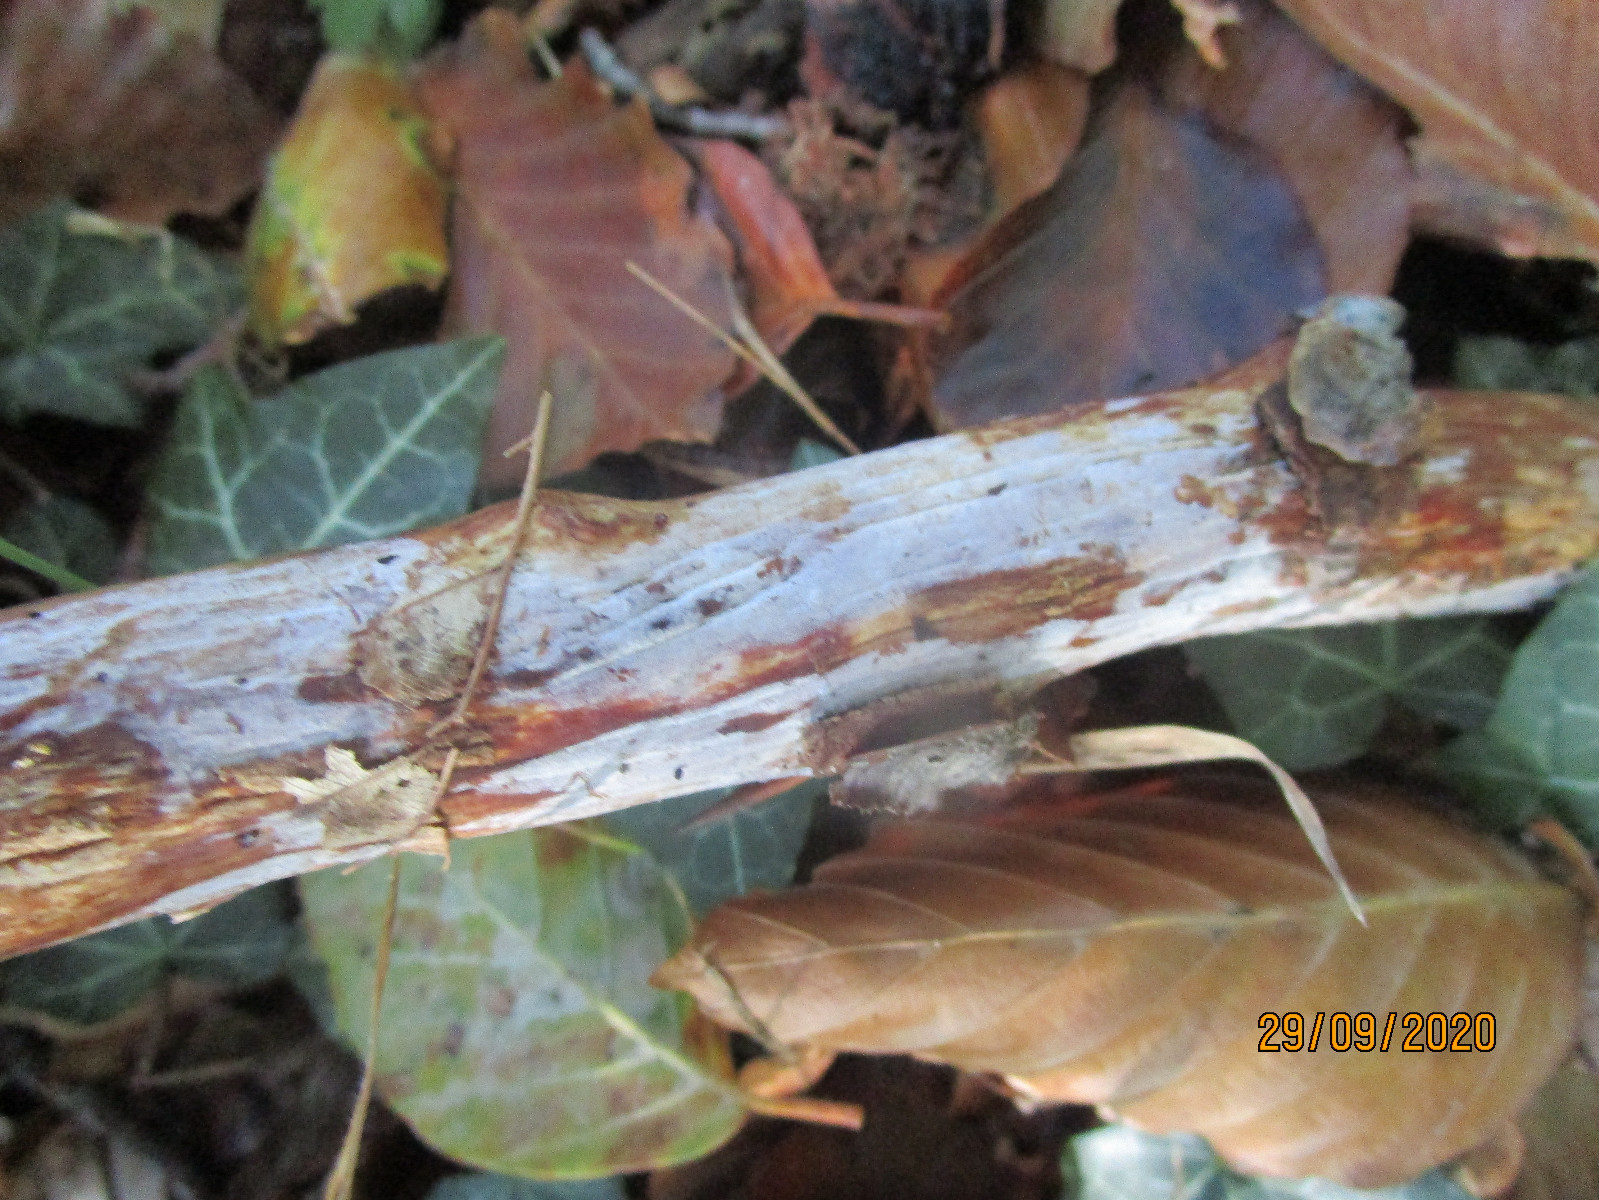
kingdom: Fungi
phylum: Basidiomycota
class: Tremellomycetes
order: Tremellales
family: Exidiaceae
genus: Exidiopsis
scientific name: Exidiopsis effusa
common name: smuk bævrehinde
